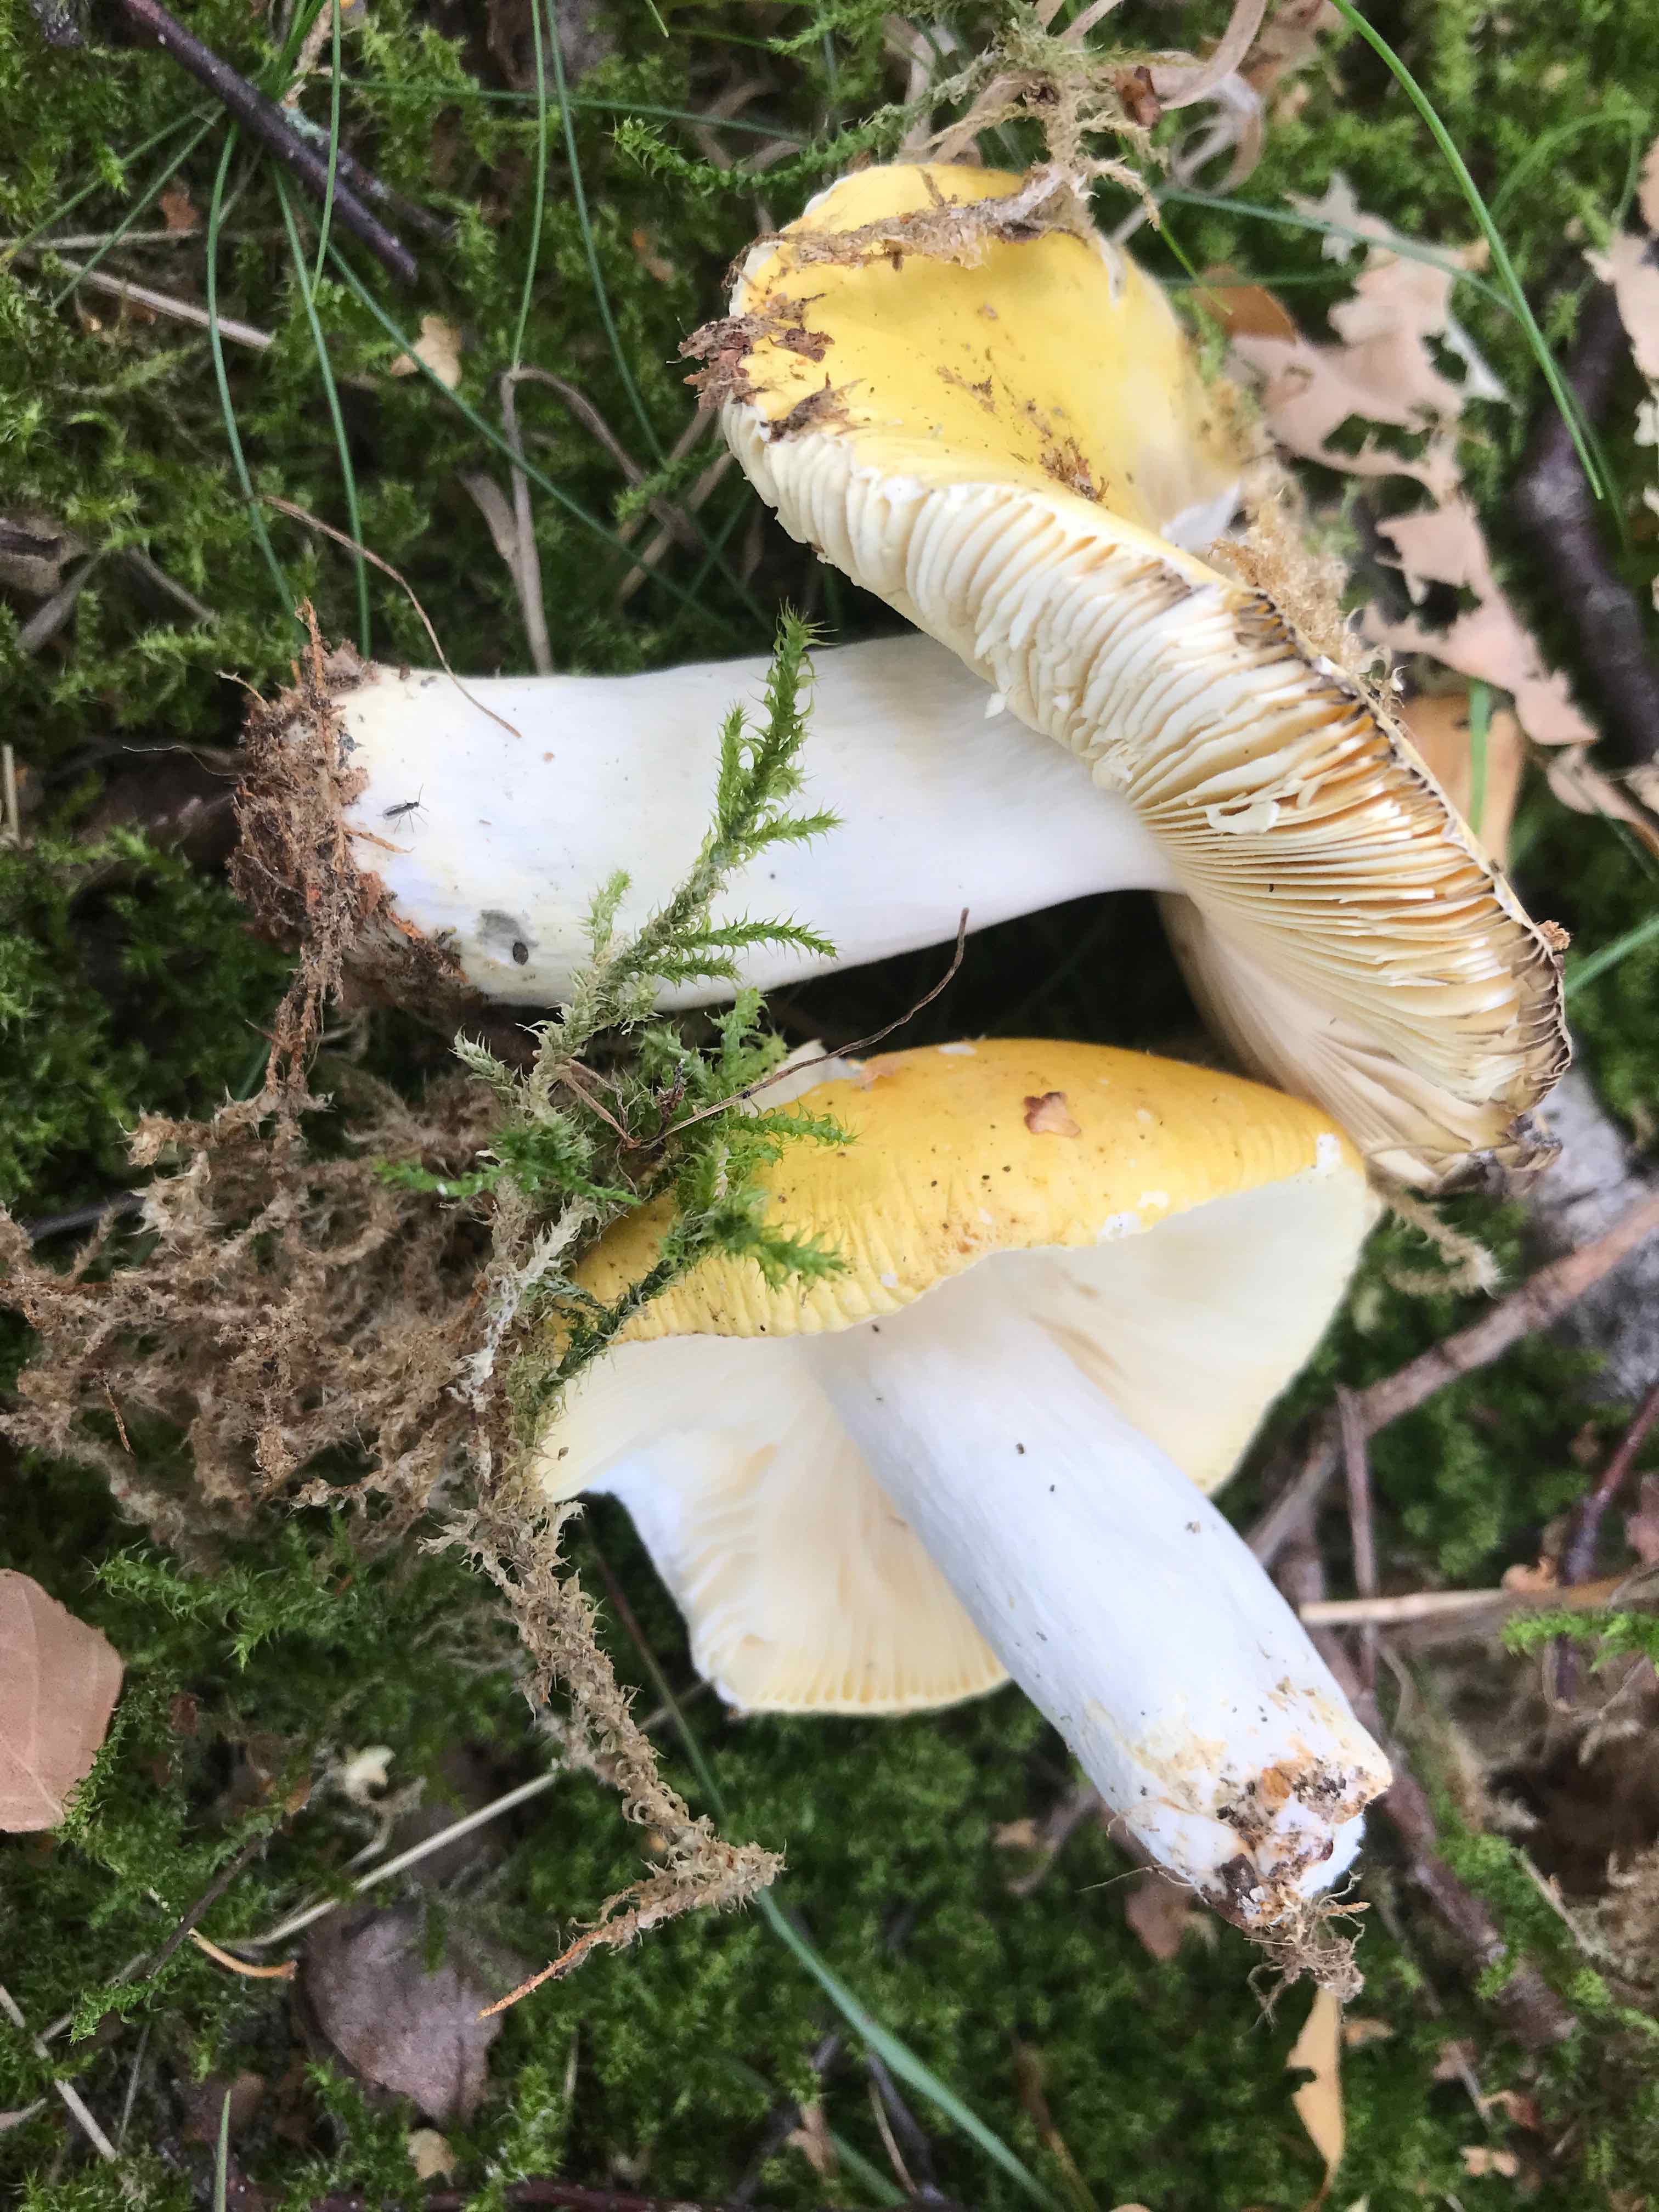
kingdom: Fungi
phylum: Basidiomycota
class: Agaricomycetes
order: Russulales
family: Russulaceae
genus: Russula
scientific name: Russula claroflava
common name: birke-skørhat
